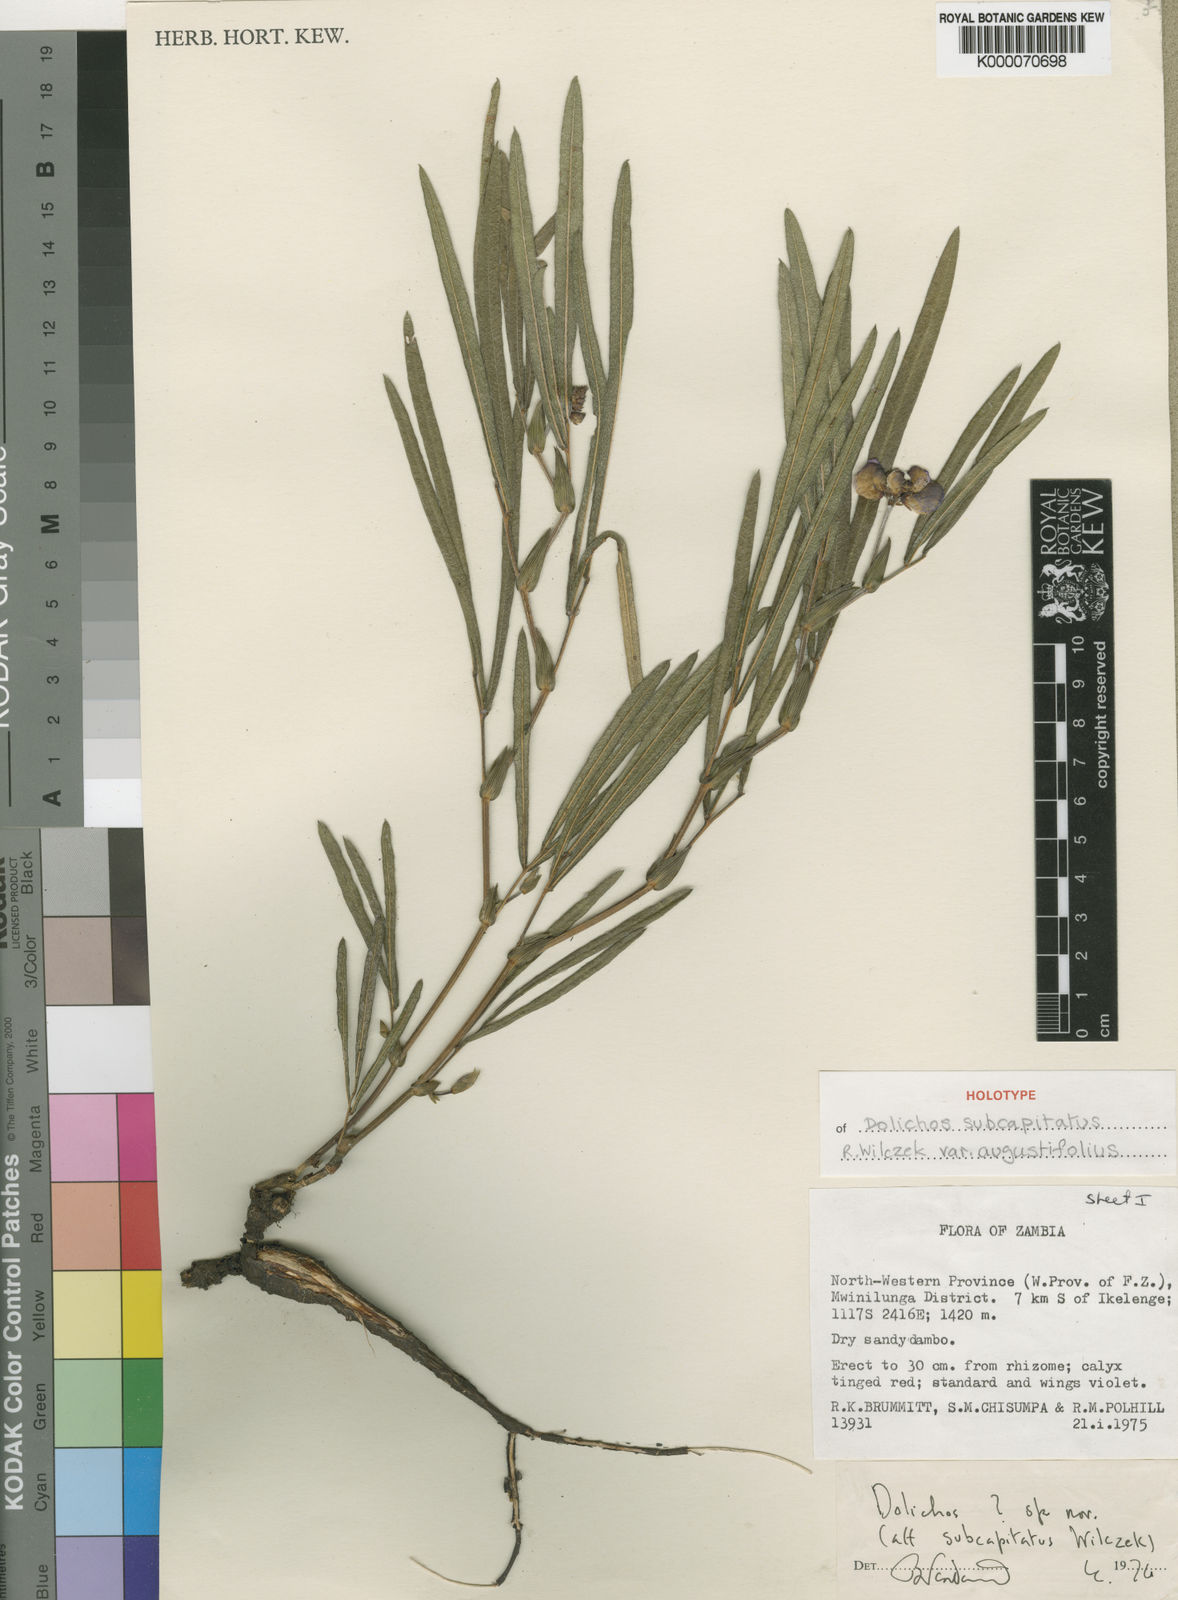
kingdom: Plantae
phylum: Tracheophyta
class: Magnoliopsida
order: Fabales
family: Fabaceae
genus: Dolichos
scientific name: Dolichos subcapitatus
